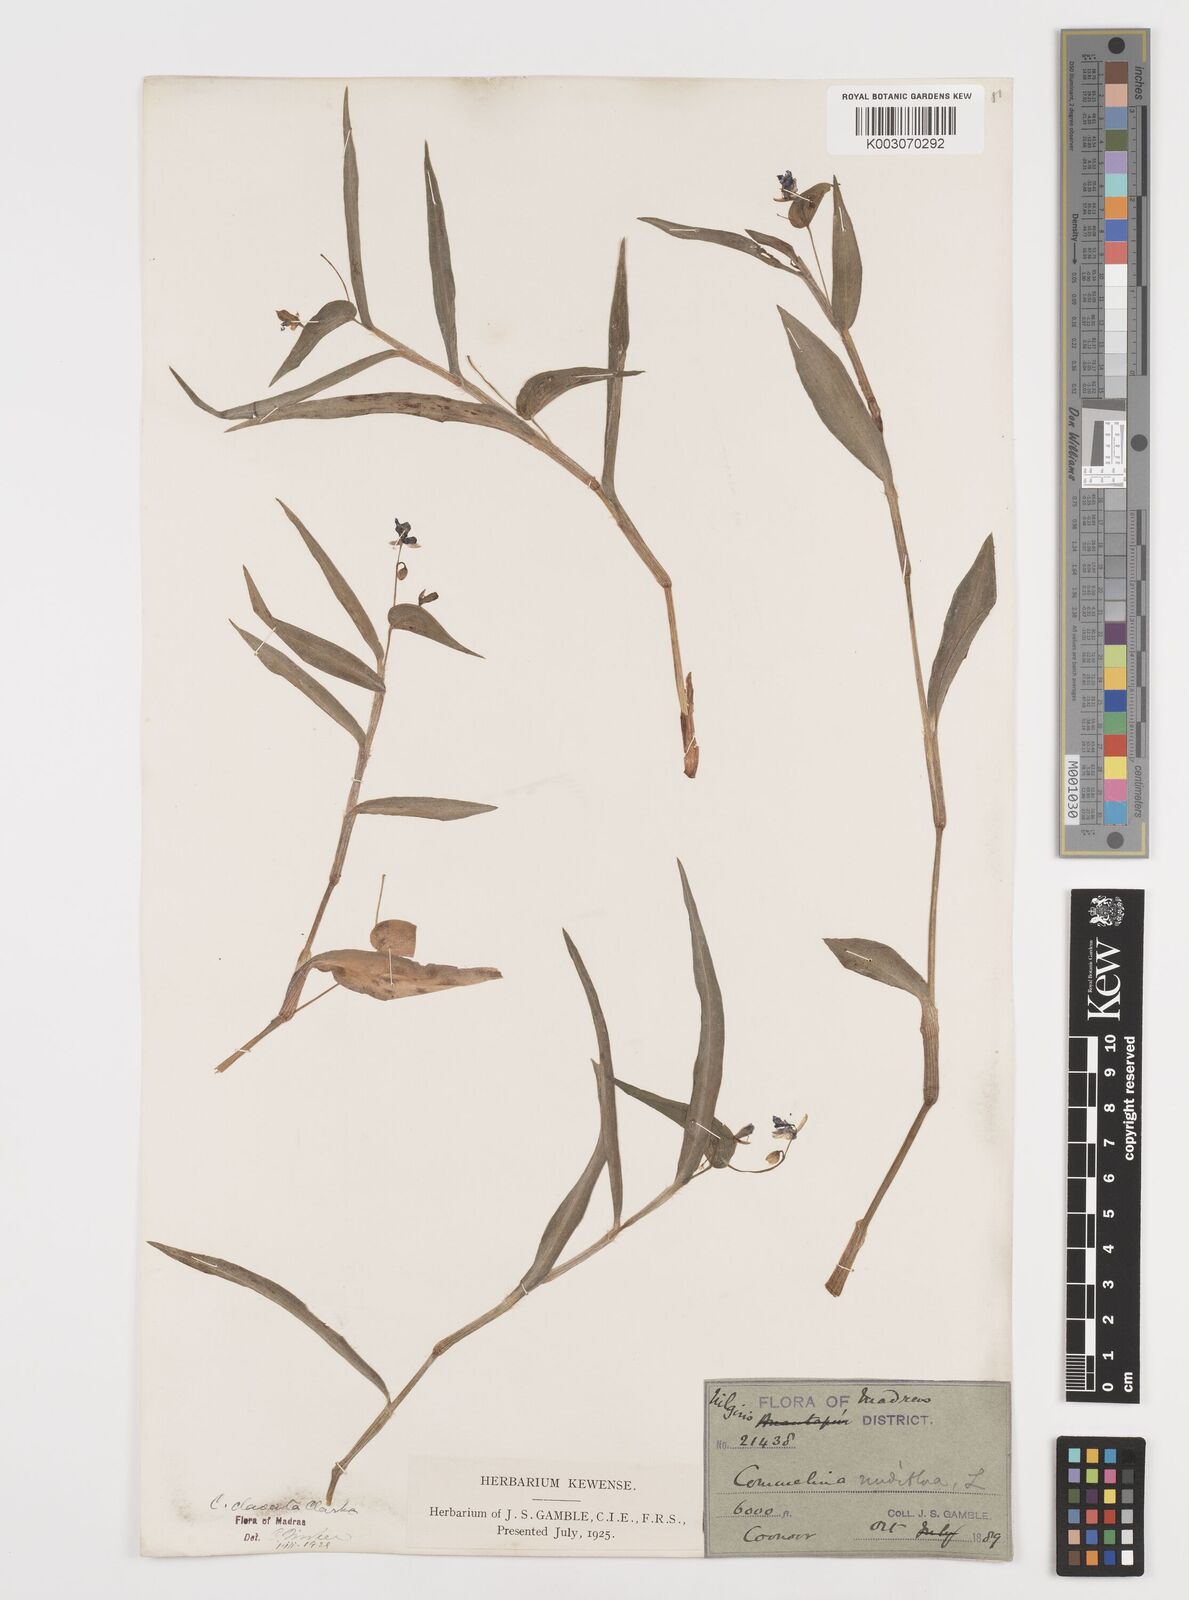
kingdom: Plantae
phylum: Tracheophyta
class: Liliopsida
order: Commelinales
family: Commelinaceae
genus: Commelina
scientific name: Commelina clavata
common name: Willow leaved dayflower
